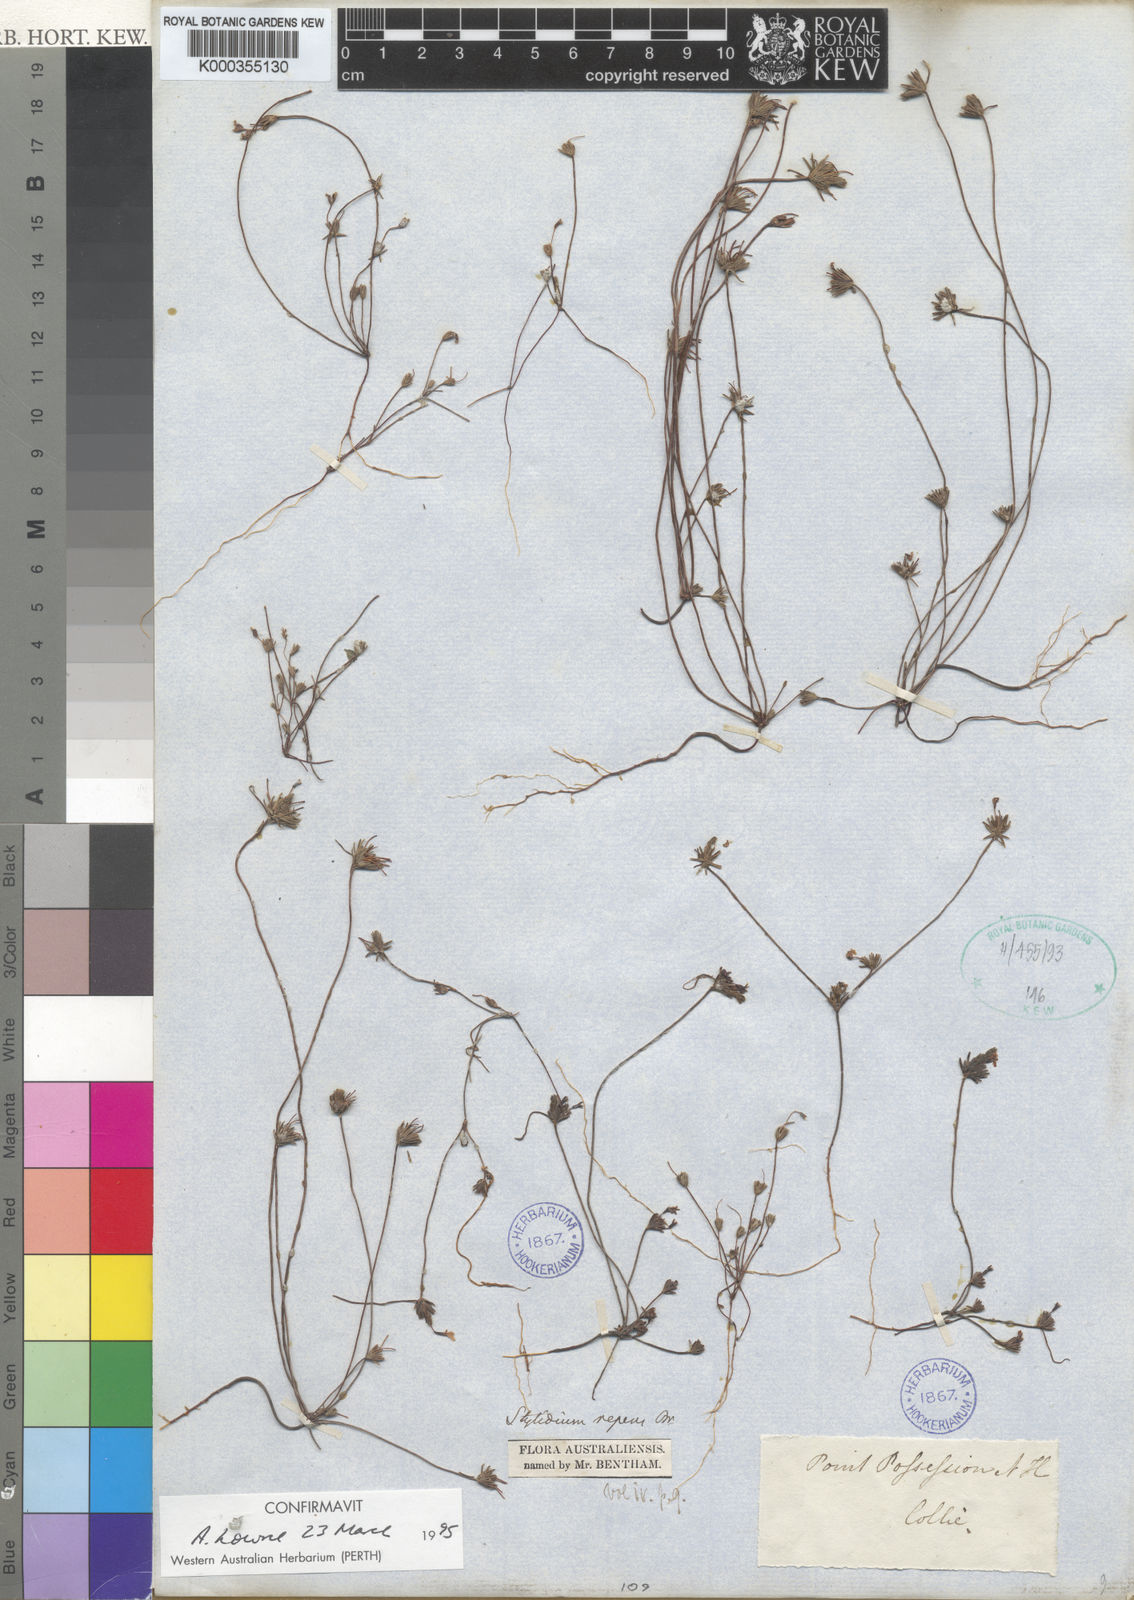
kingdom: Plantae
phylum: Tracheophyta
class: Magnoliopsida
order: Asterales
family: Stylidiaceae
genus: Stylidium
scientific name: Stylidium repens
